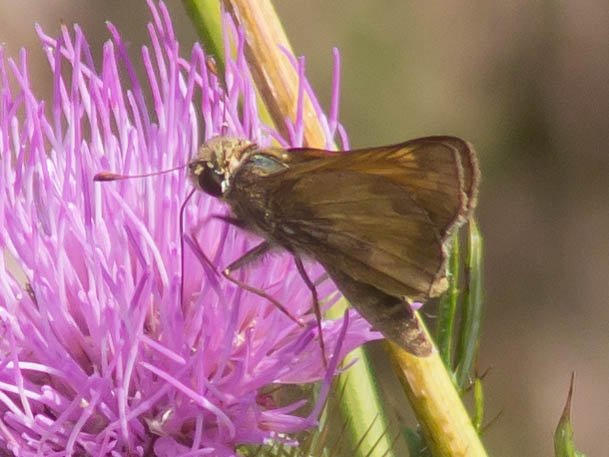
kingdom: Animalia
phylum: Arthropoda
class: Insecta
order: Lepidoptera
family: Hesperiidae
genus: Atalopedes
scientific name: Atalopedes campestris
